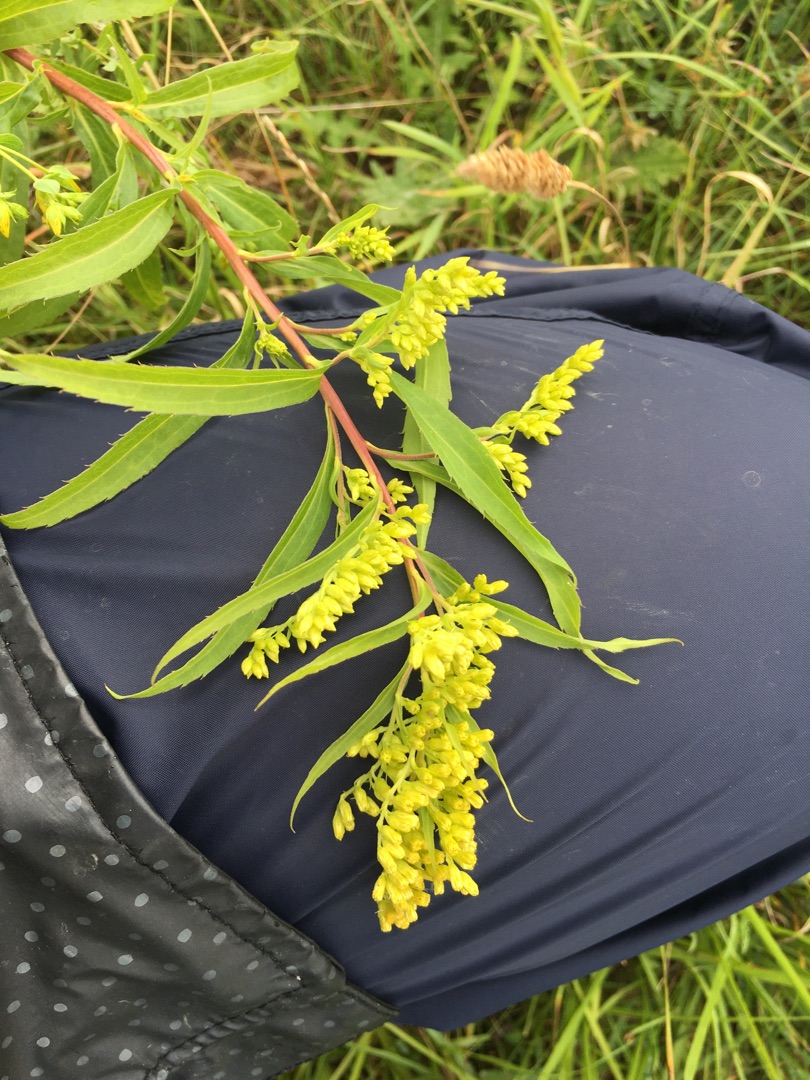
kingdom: Plantae
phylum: Tracheophyta
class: Magnoliopsida
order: Asterales
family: Asteraceae
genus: Solidago
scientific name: Solidago gigantea
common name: Sildig gyldenris
